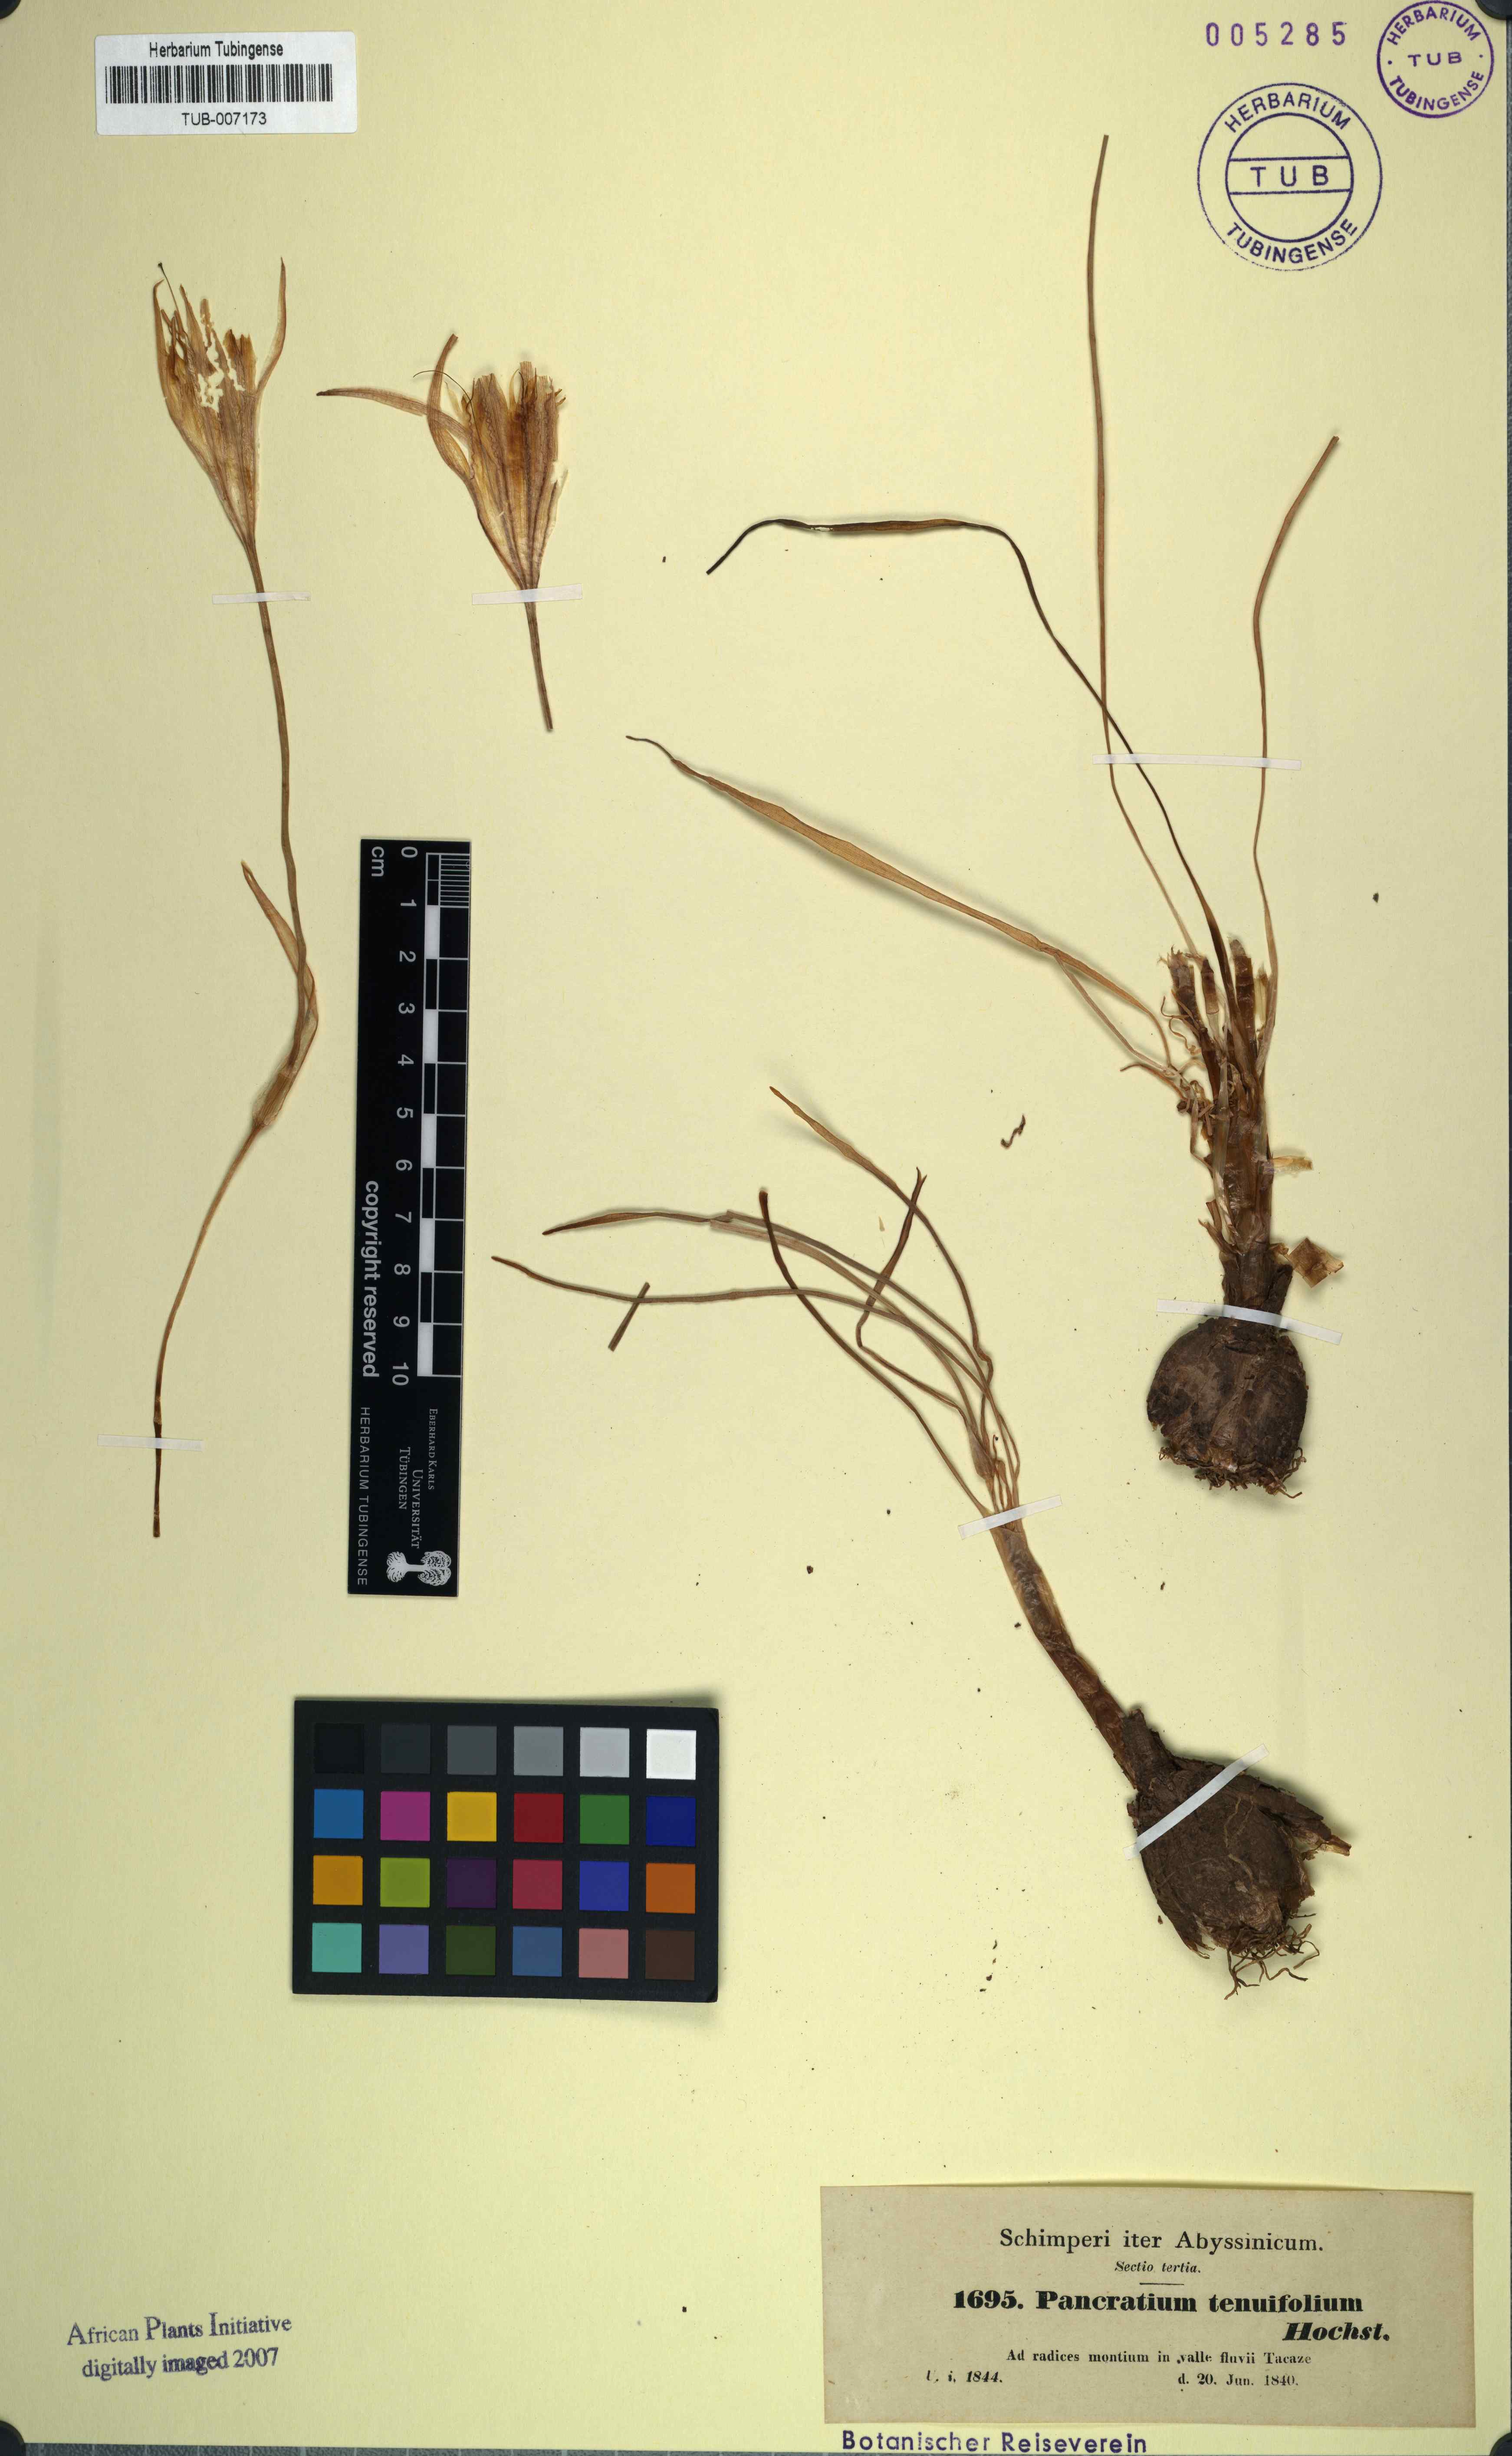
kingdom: Plantae
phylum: Tracheophyta
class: Liliopsida
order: Asparagales
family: Amaryllidaceae
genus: Pancratium
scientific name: Pancratium trianthum
